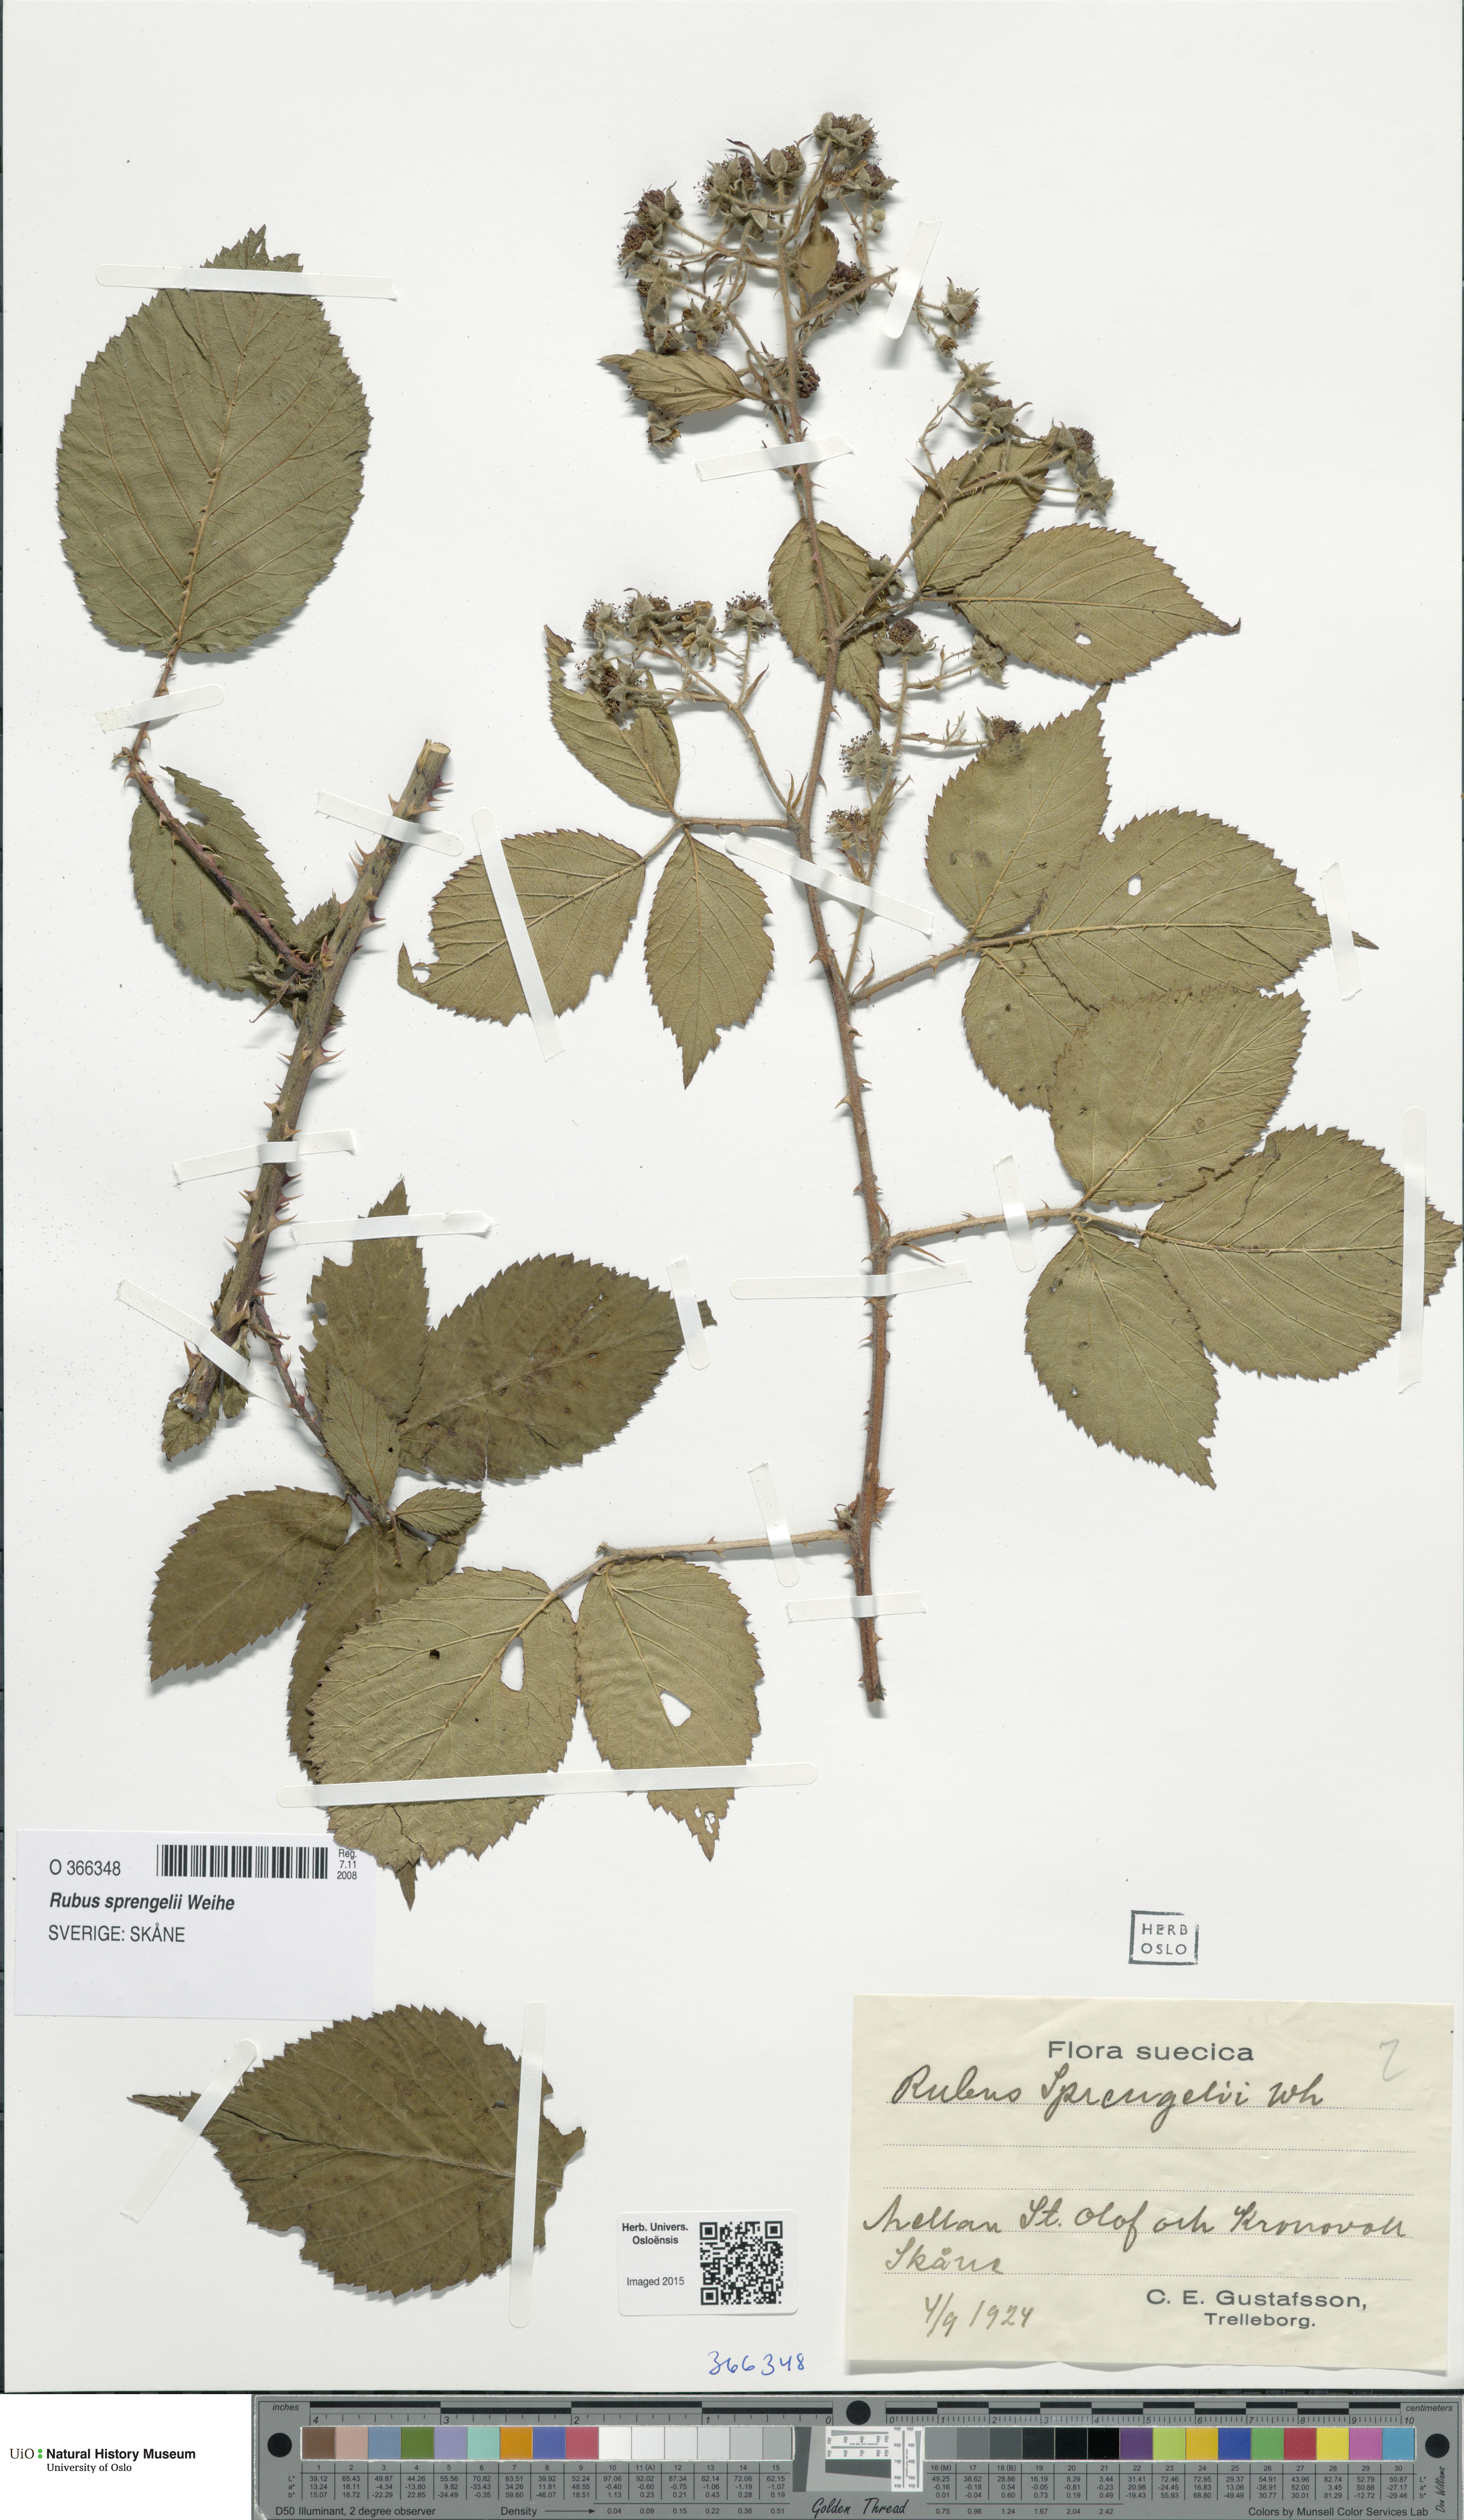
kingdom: Plantae
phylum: Tracheophyta
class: Magnoliopsida
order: Rosales
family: Rosaceae
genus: Rubus
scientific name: Rubus sprengelii
